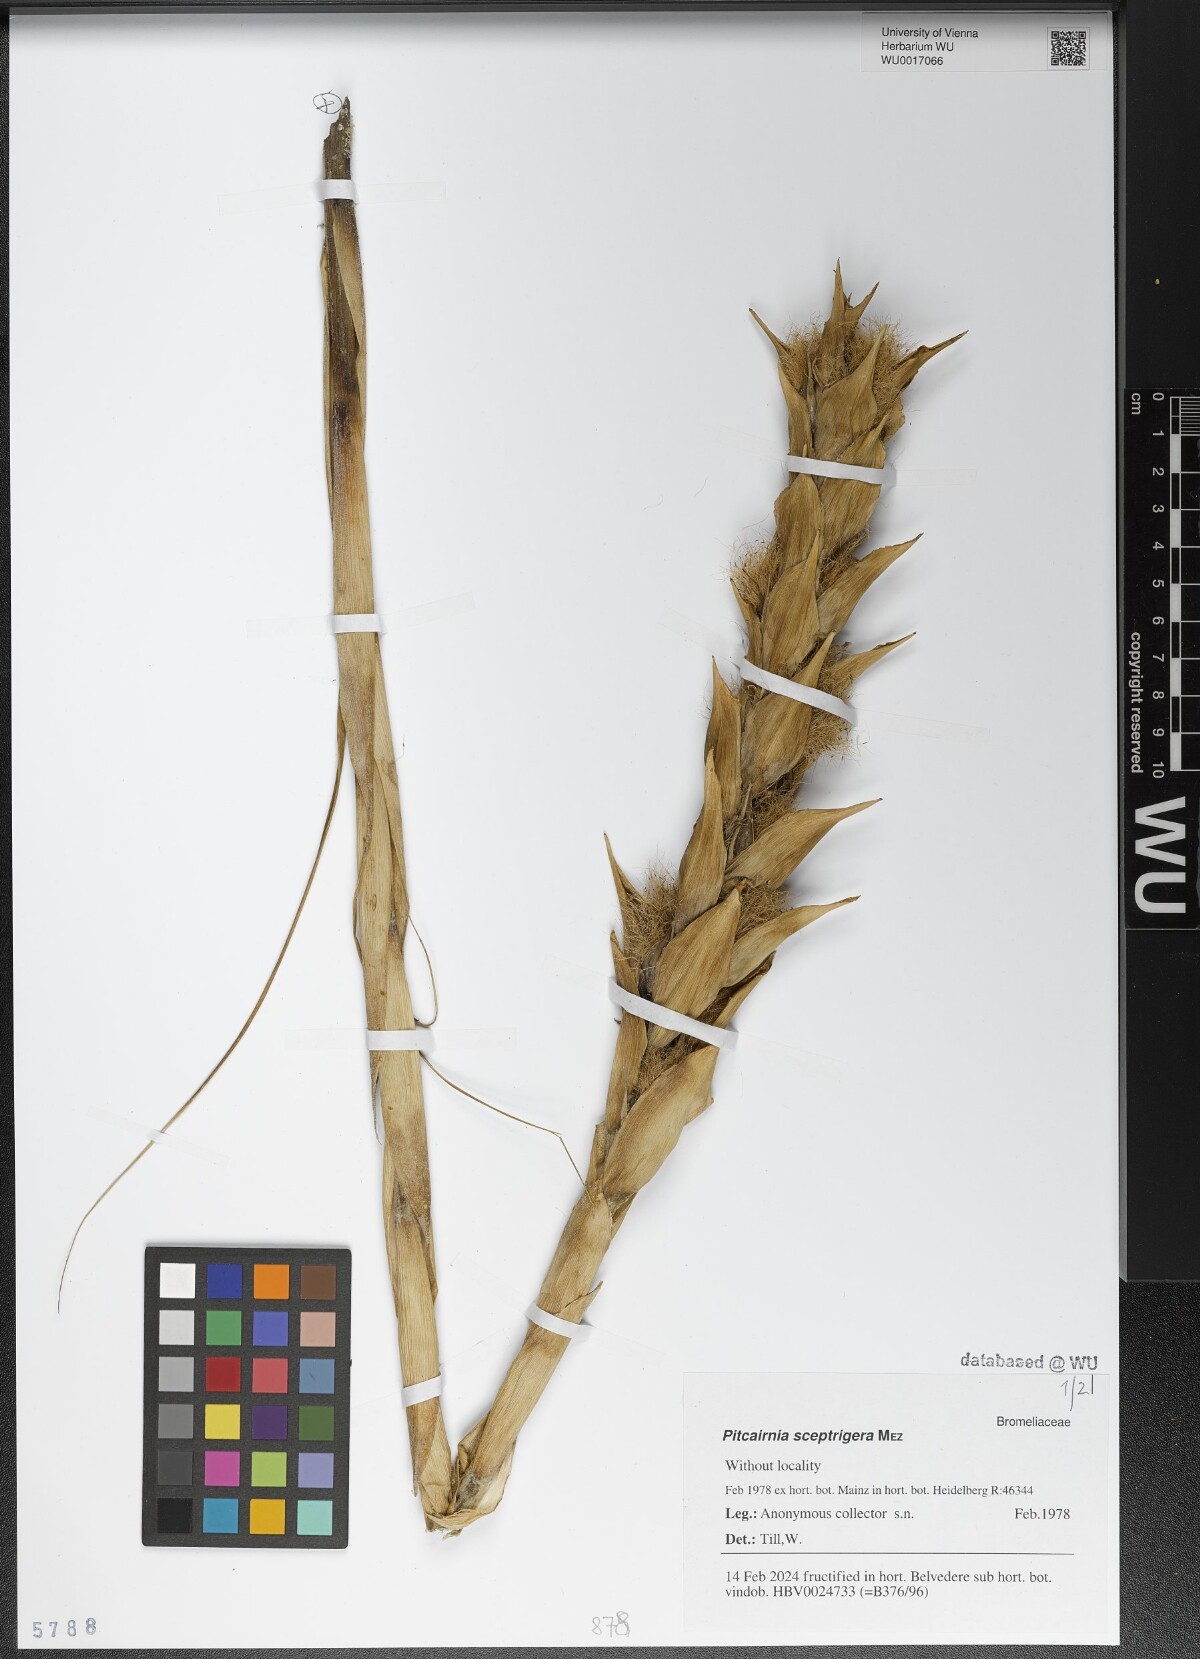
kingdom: Plantae
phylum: Tracheophyta
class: Liliopsida
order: Poales
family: Bromeliaceae
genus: Pitcairnia
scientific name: Pitcairnia sceptrigera
